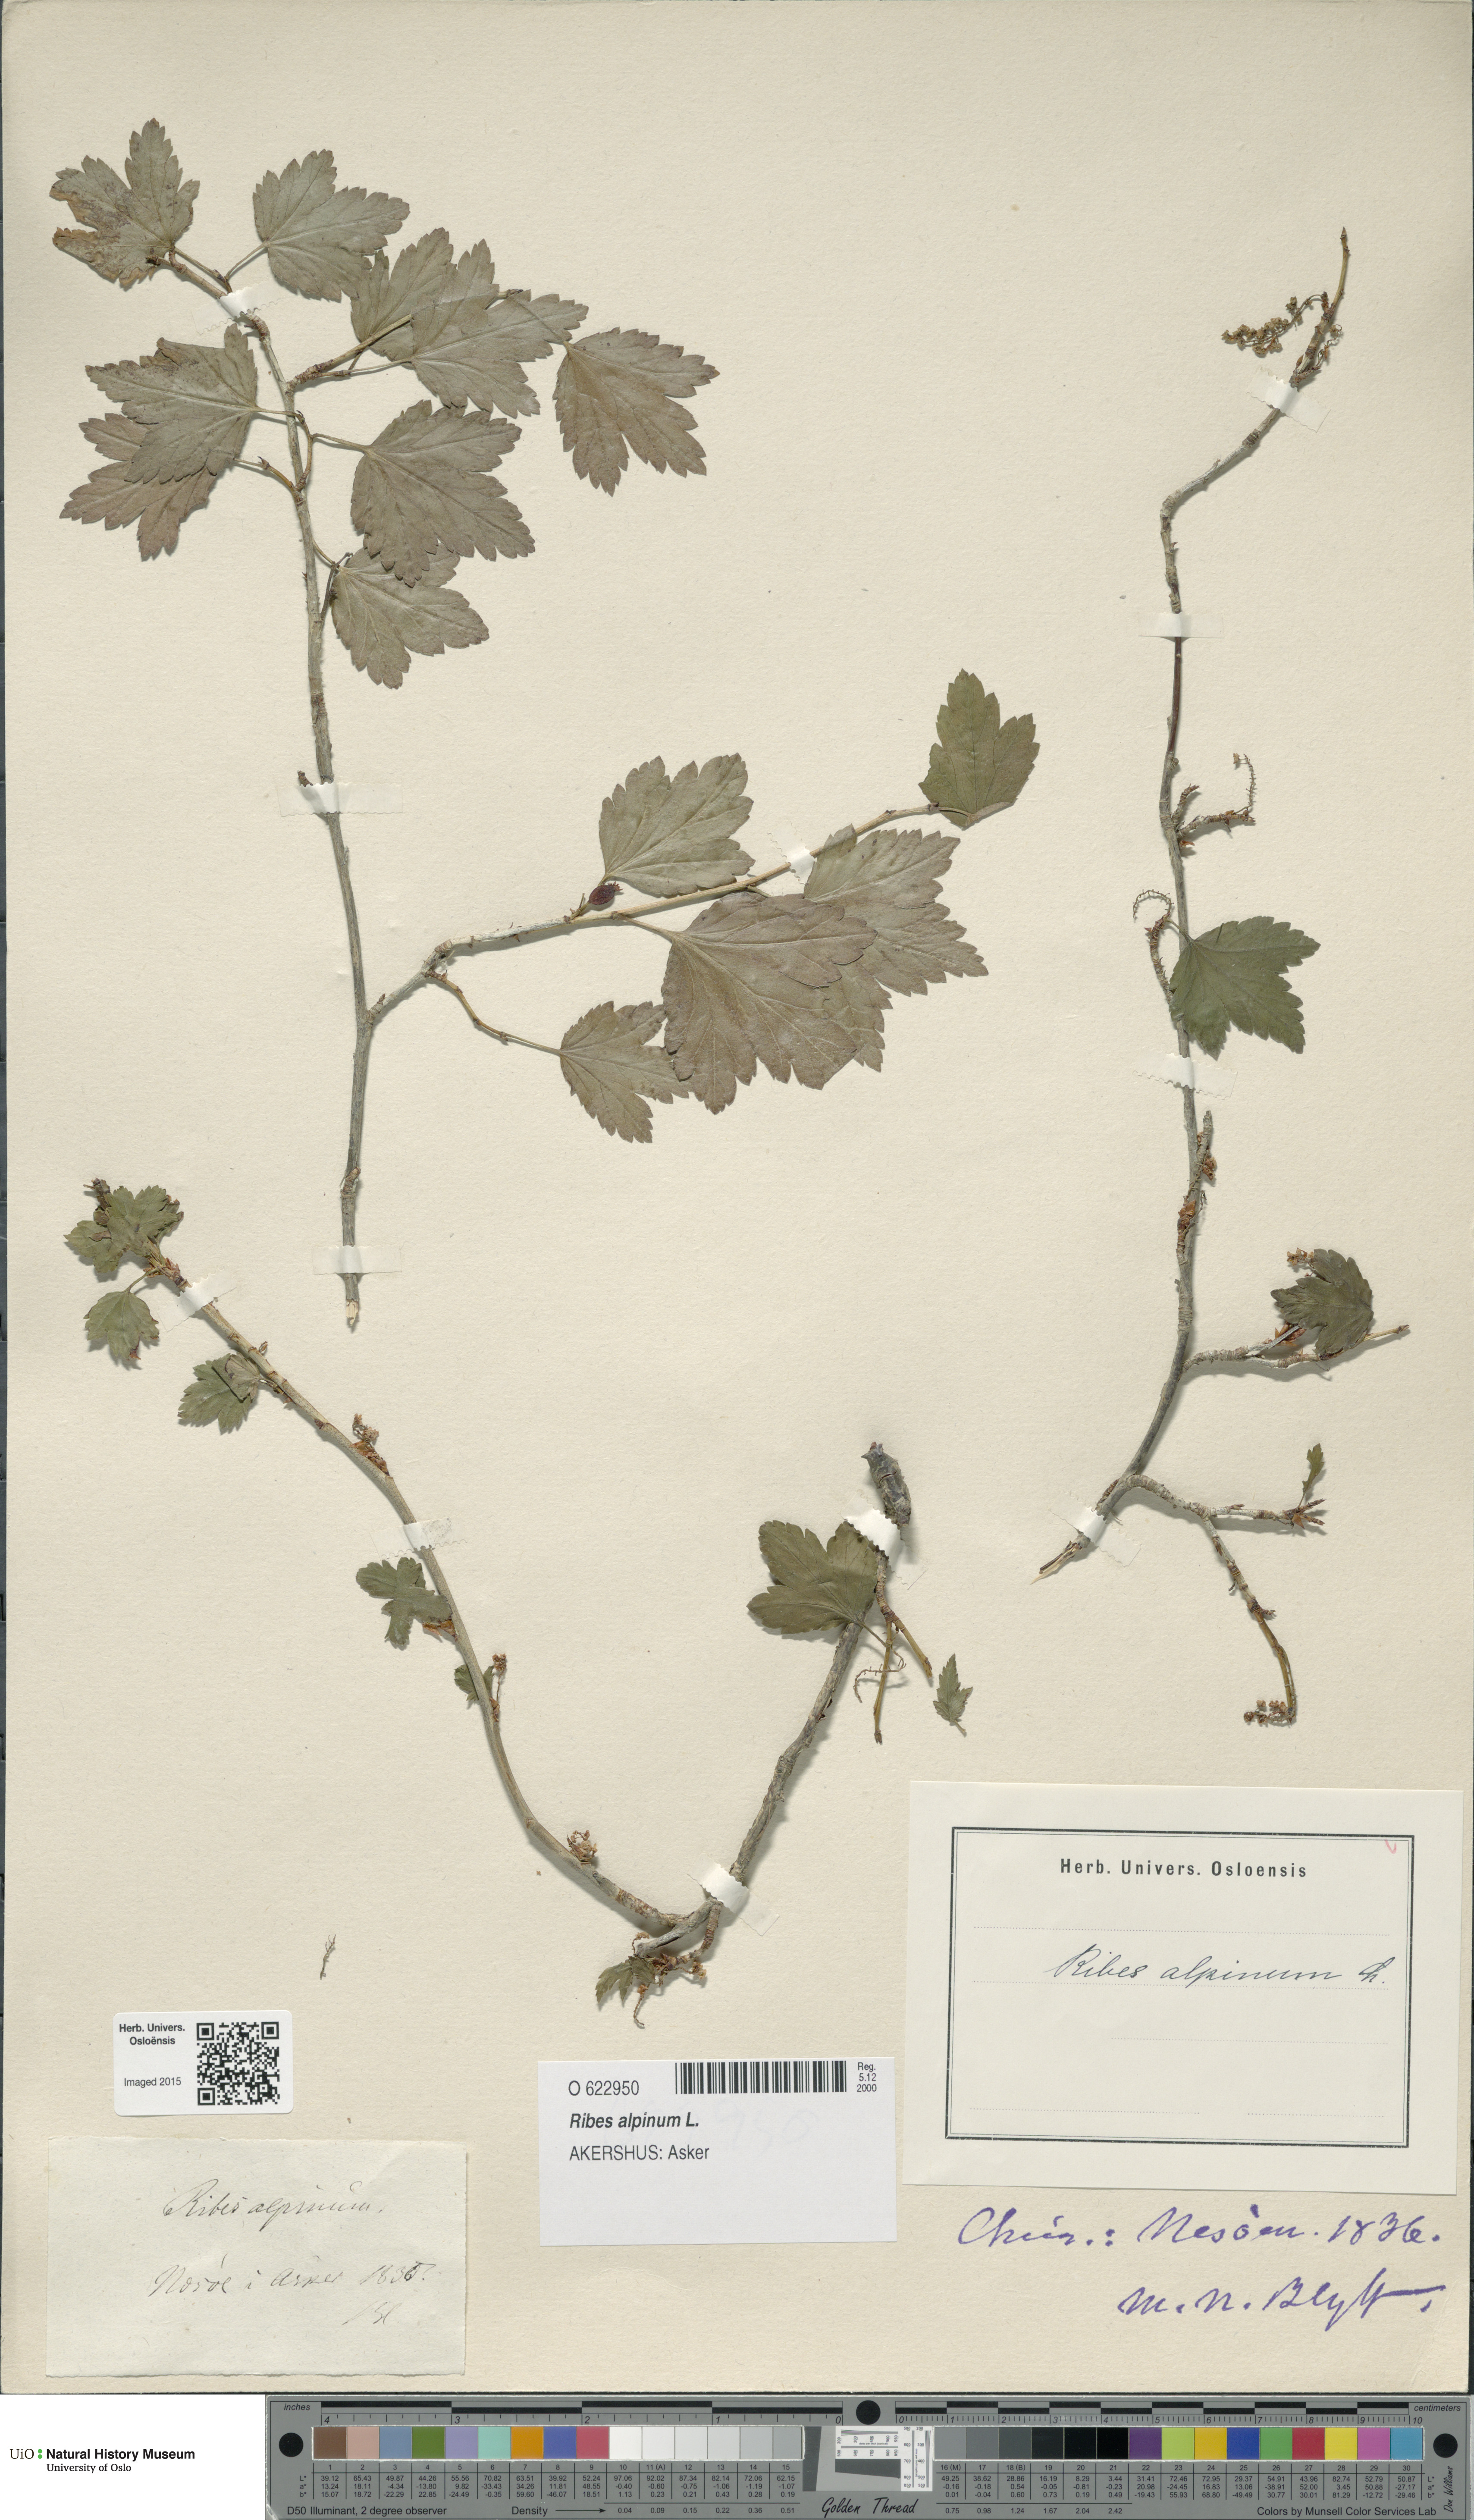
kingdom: Plantae
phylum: Tracheophyta
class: Magnoliopsida
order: Saxifragales
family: Grossulariaceae
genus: Ribes
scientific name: Ribes alpinum
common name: Alpine currant
